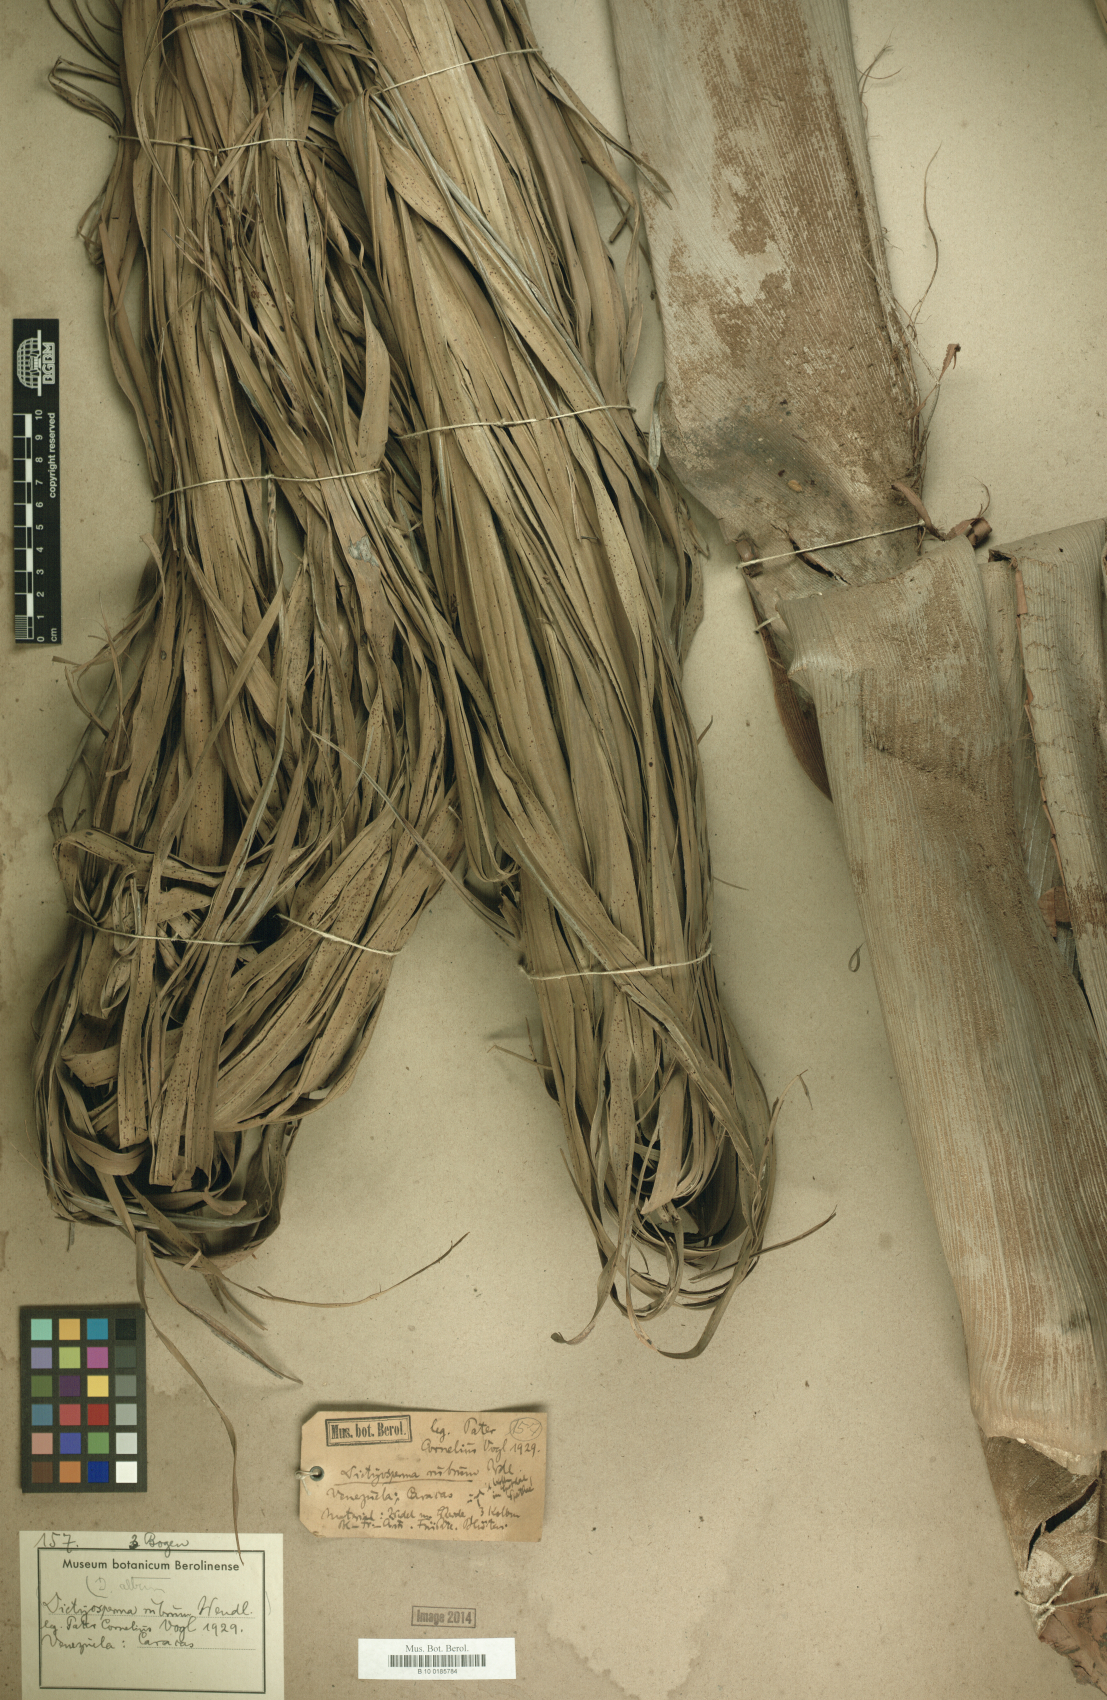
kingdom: Plantae
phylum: Tracheophyta
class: Liliopsida
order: Arecales
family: Arecaceae
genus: Dictyosperma
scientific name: Dictyosperma album
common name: Common princess palm
